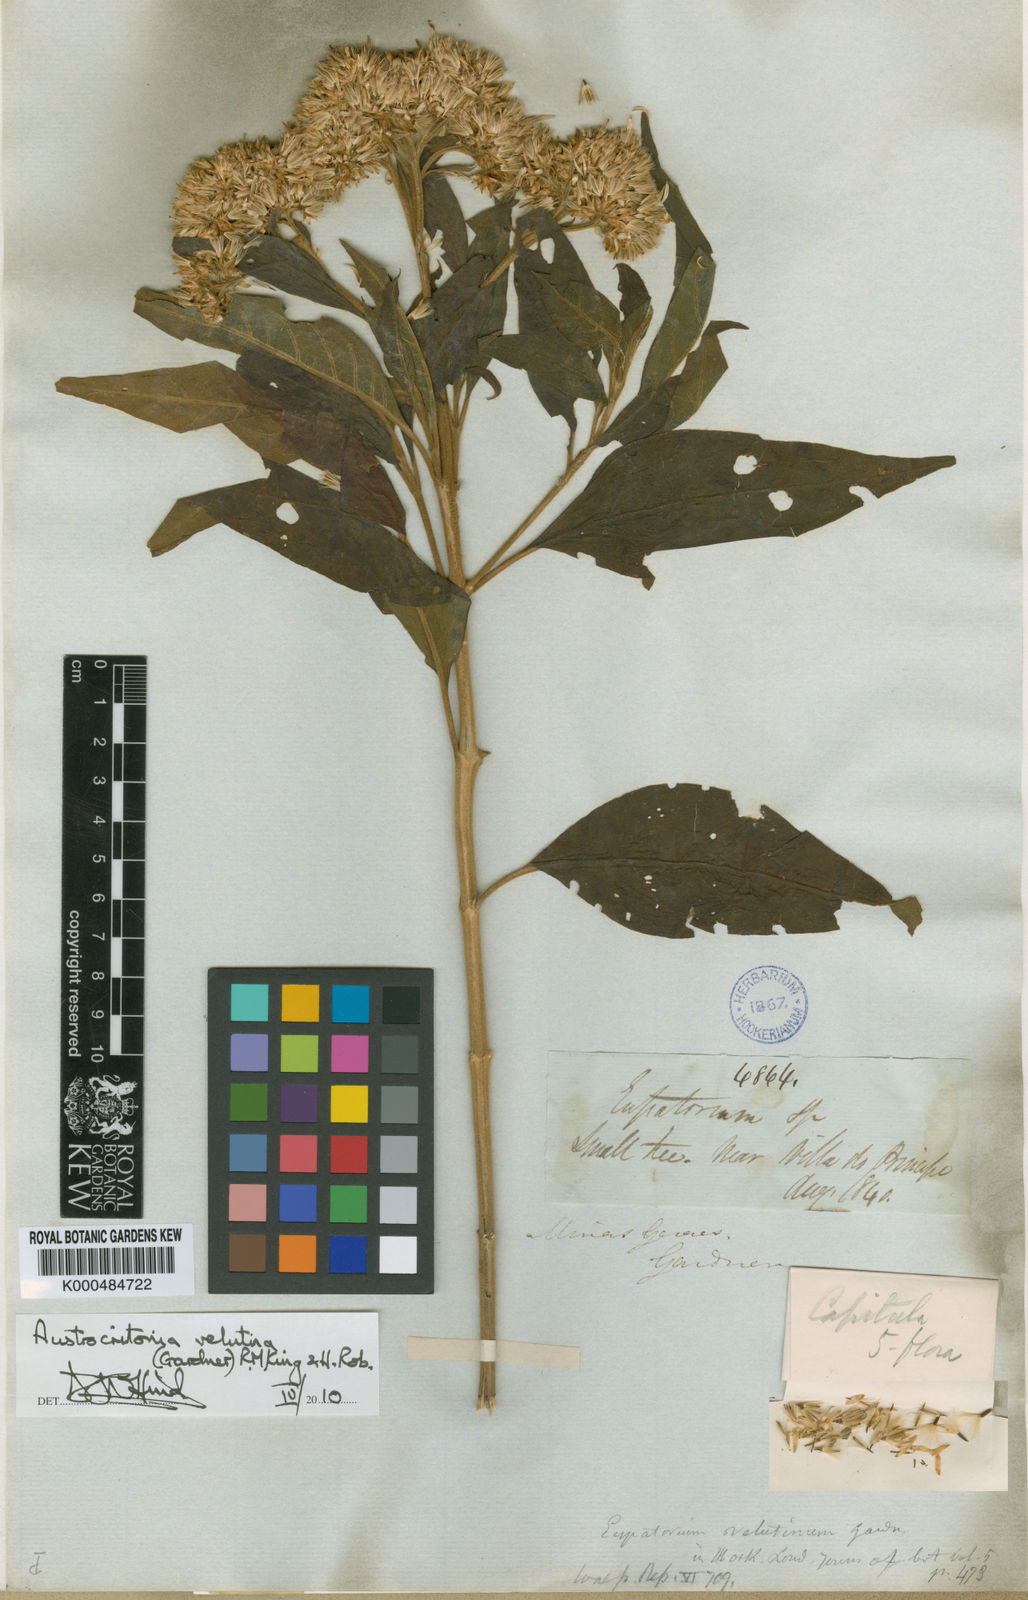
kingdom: Plantae
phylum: Tracheophyta
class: Magnoliopsida
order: Asterales
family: Asteraceae
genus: Austrocritonia
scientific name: Austrocritonia velutina
